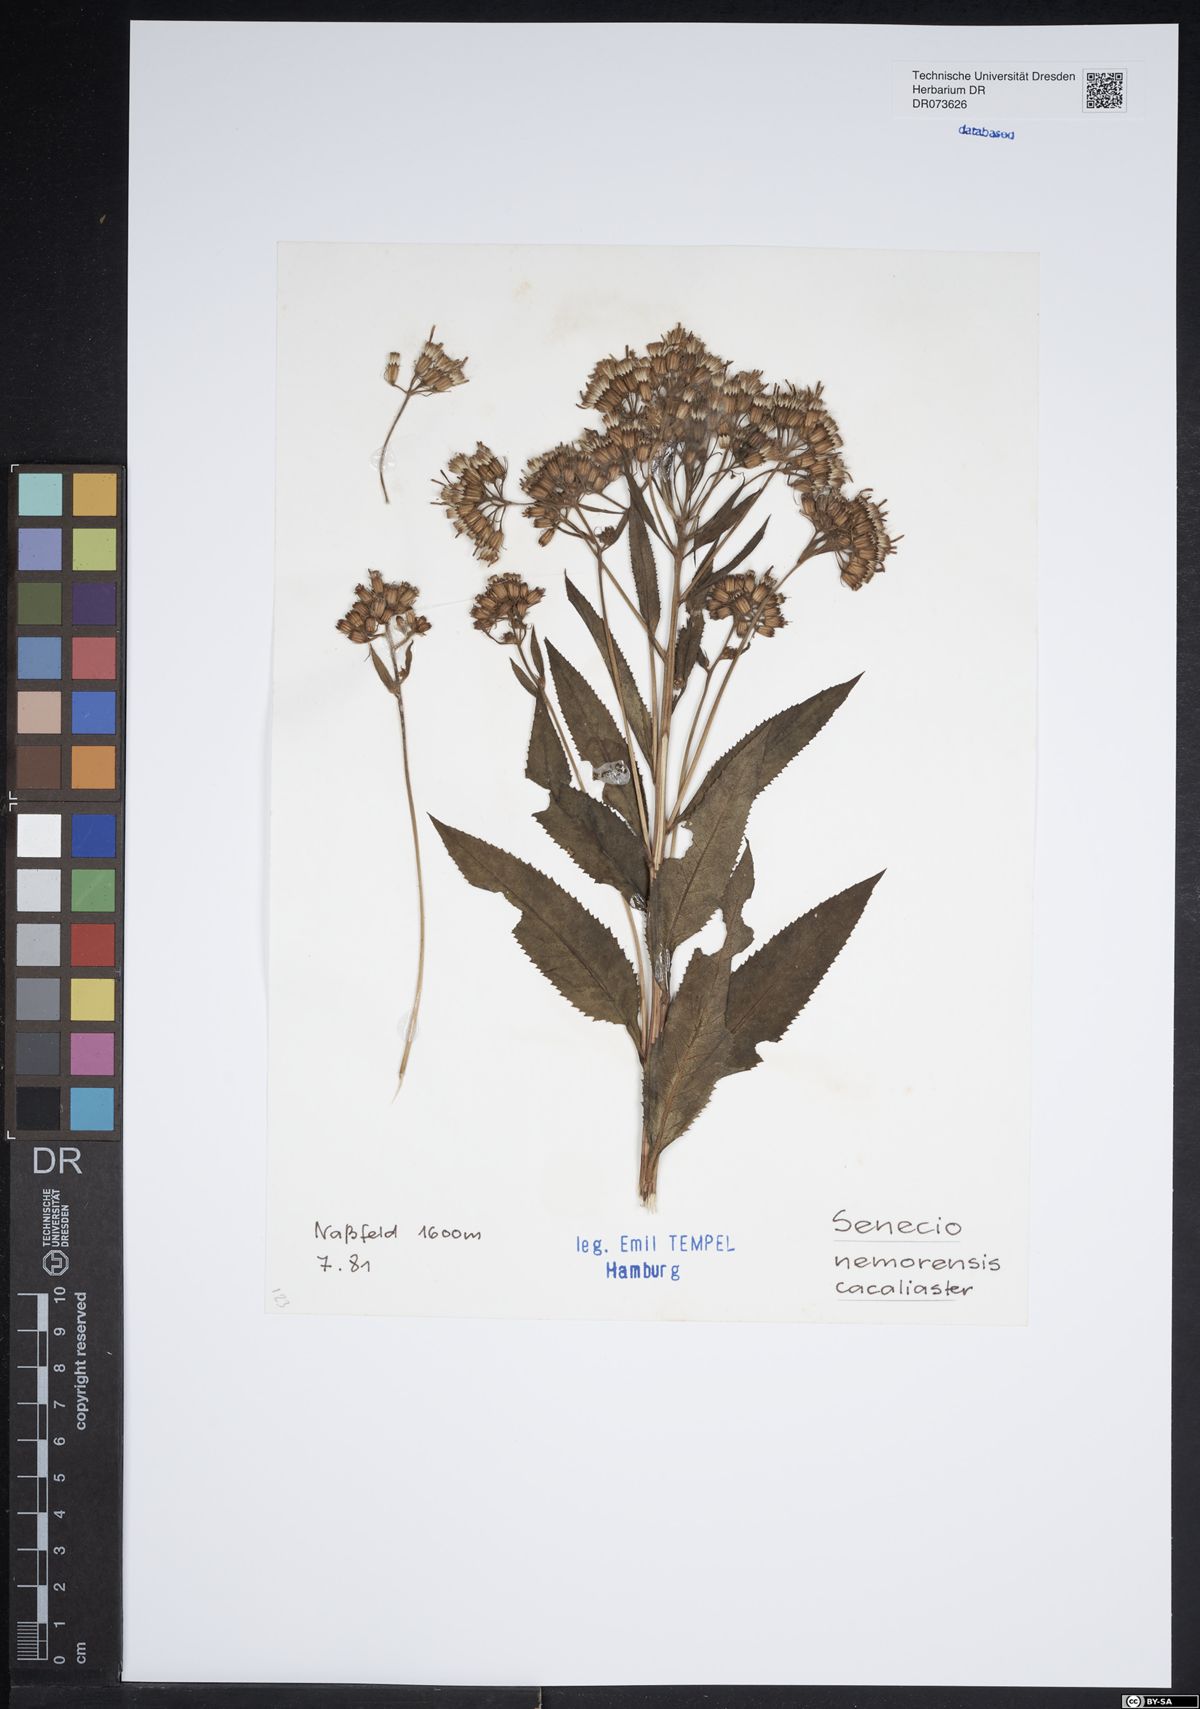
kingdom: Plantae
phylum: Tracheophyta
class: Magnoliopsida
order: Asterales
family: Asteraceae
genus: Senecio
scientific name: Senecio cacaliaster
